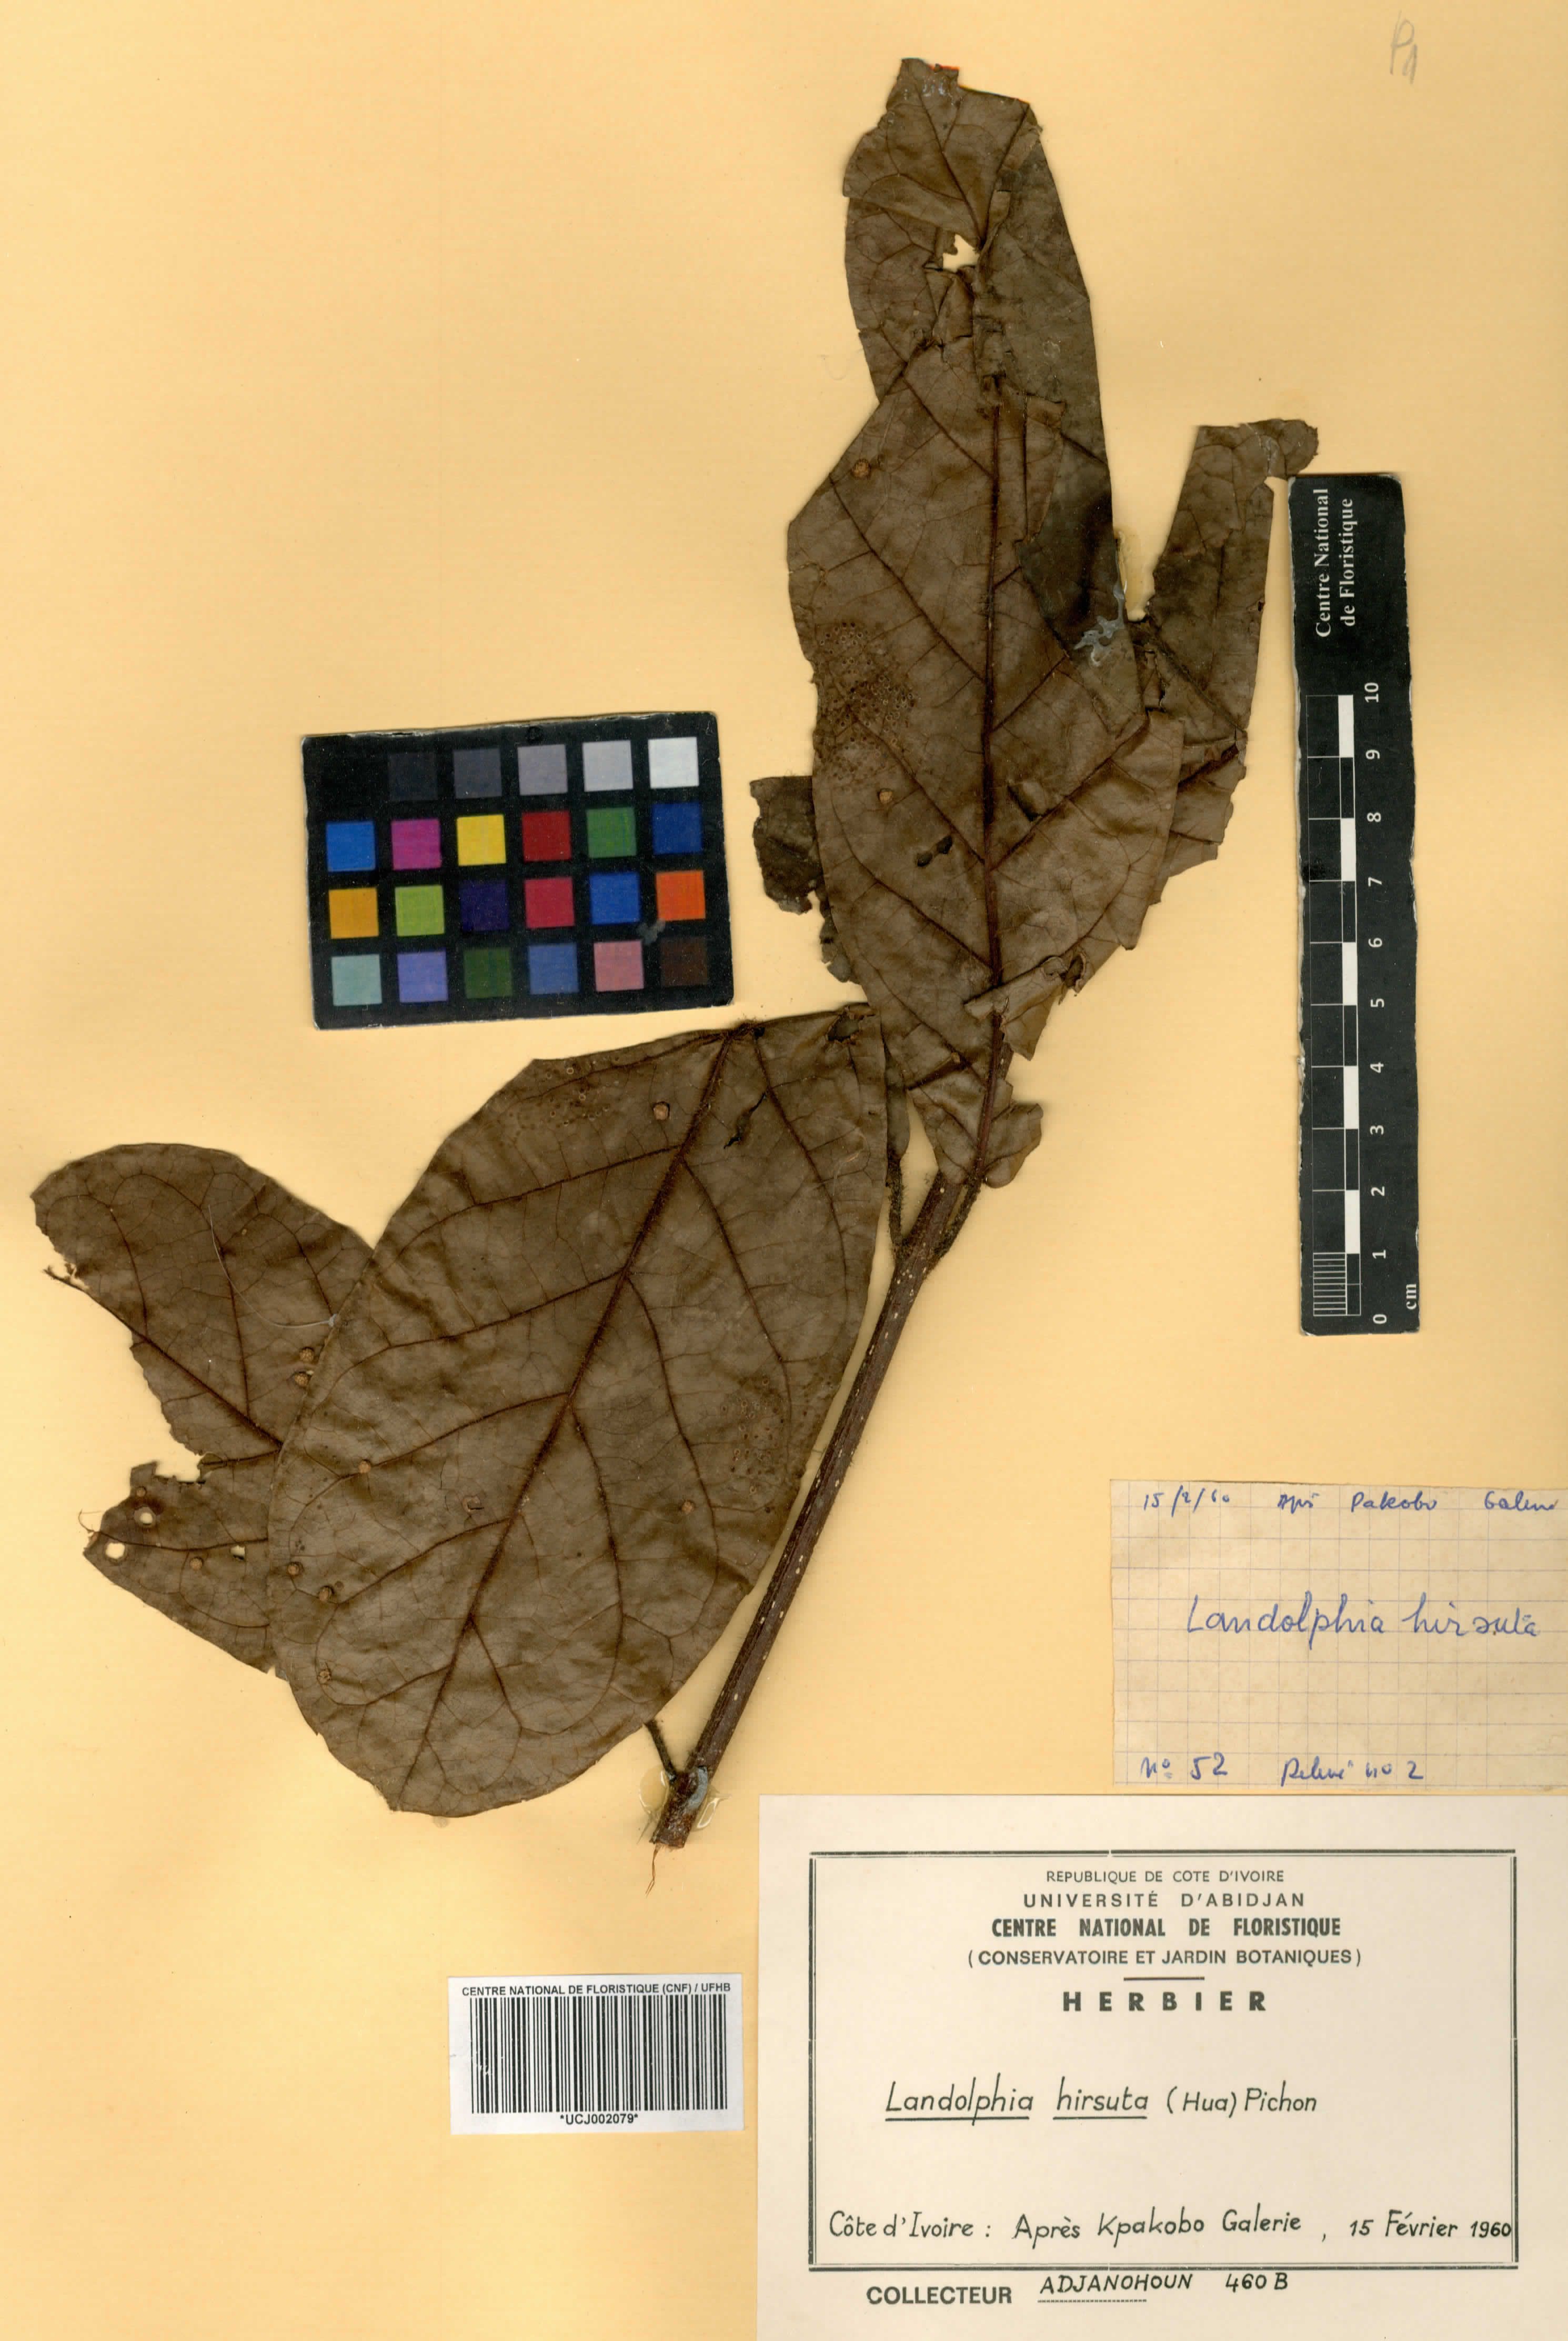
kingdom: Plantae
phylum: Tracheophyta
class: Magnoliopsida
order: Gentianales
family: Apocynaceae
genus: Landolphia
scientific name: Landolphia hirsuta
